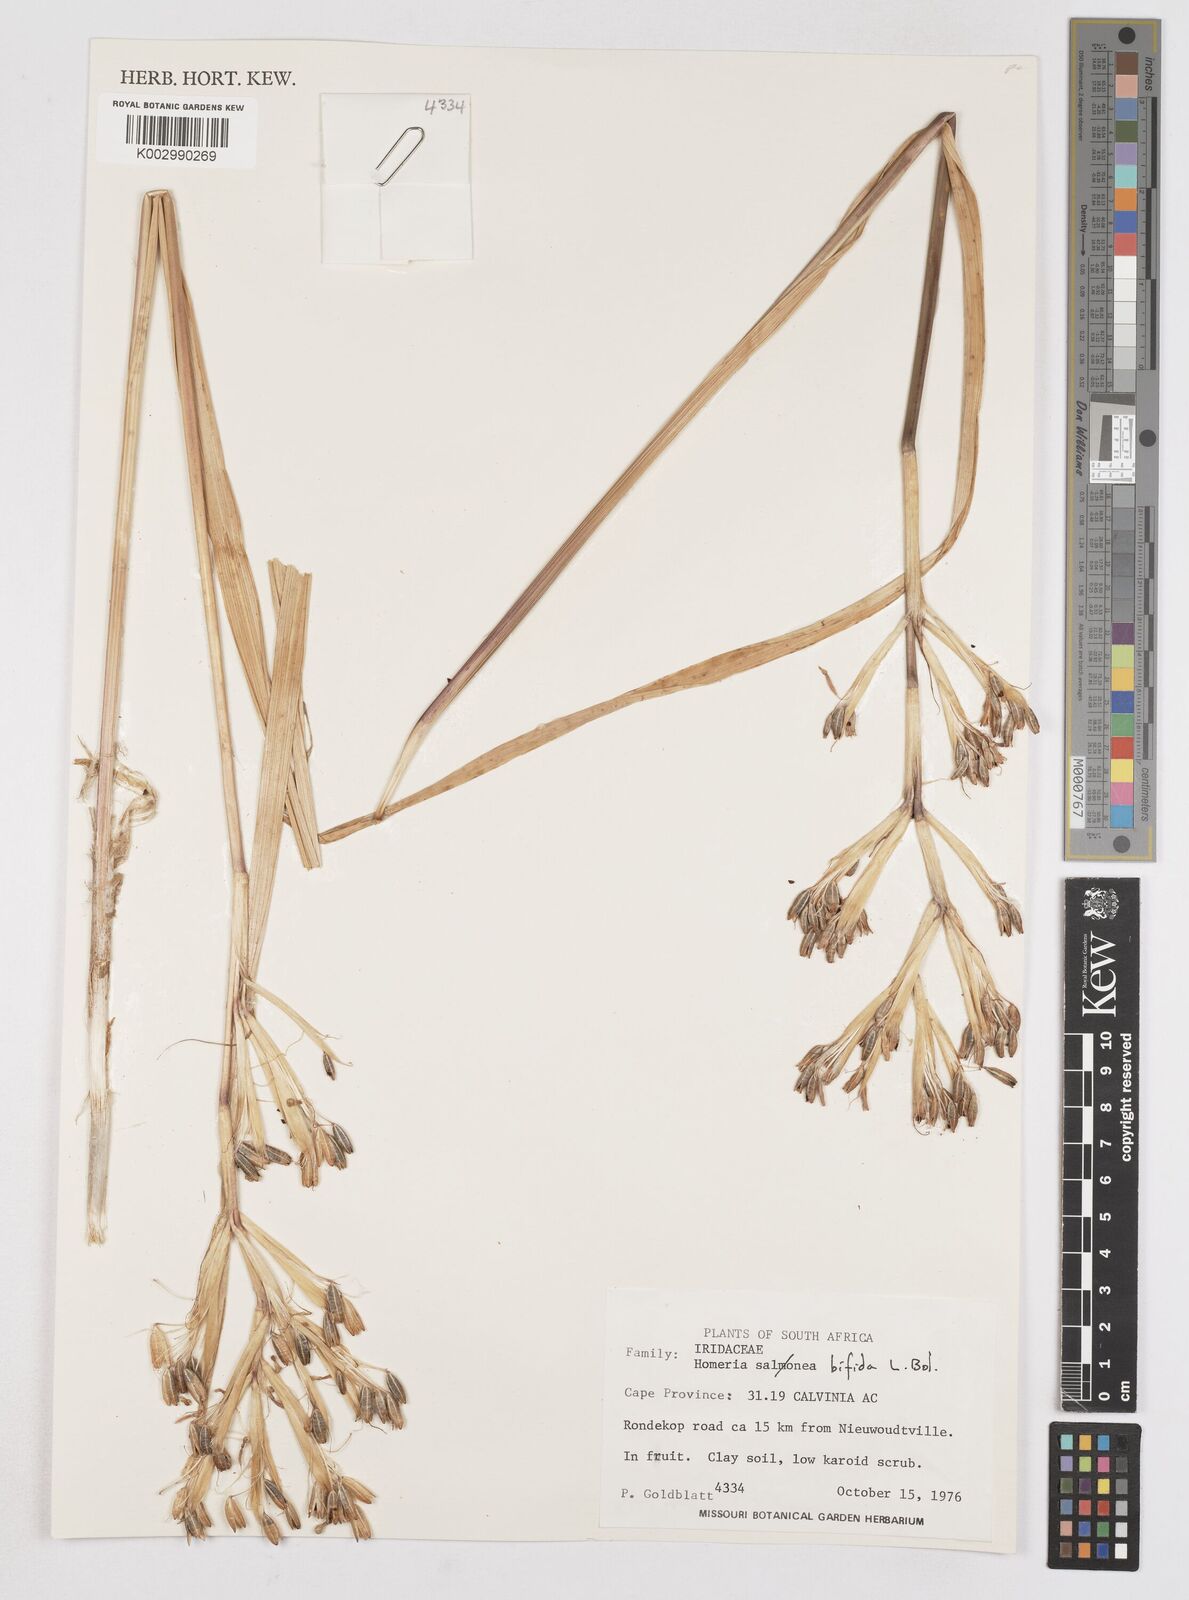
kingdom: Plantae
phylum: Tracheophyta
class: Liliopsida
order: Asparagales
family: Iridaceae
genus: Moraea
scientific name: Moraea bifida
